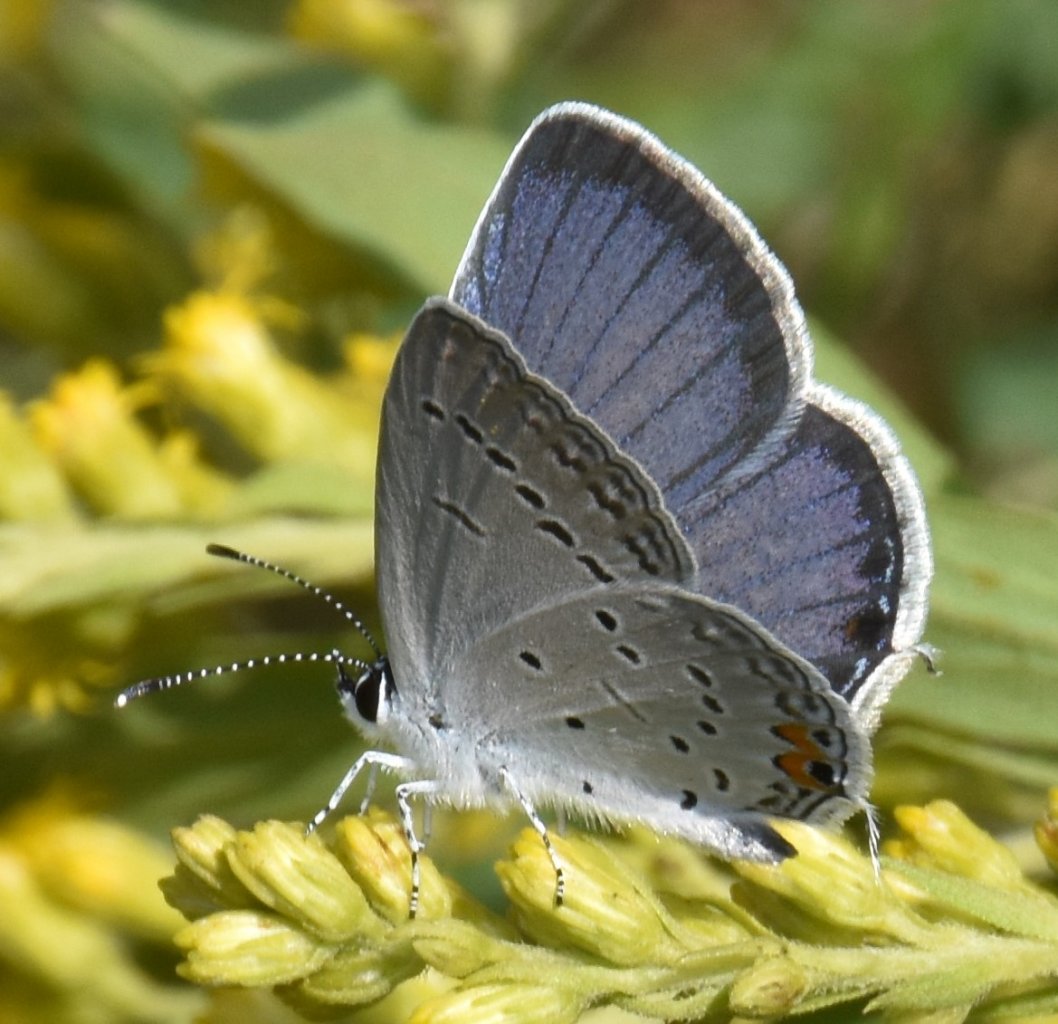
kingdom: Animalia
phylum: Arthropoda
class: Insecta
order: Lepidoptera
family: Lycaenidae
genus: Elkalyce
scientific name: Elkalyce comyntas
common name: Eastern Tailed-Blue
